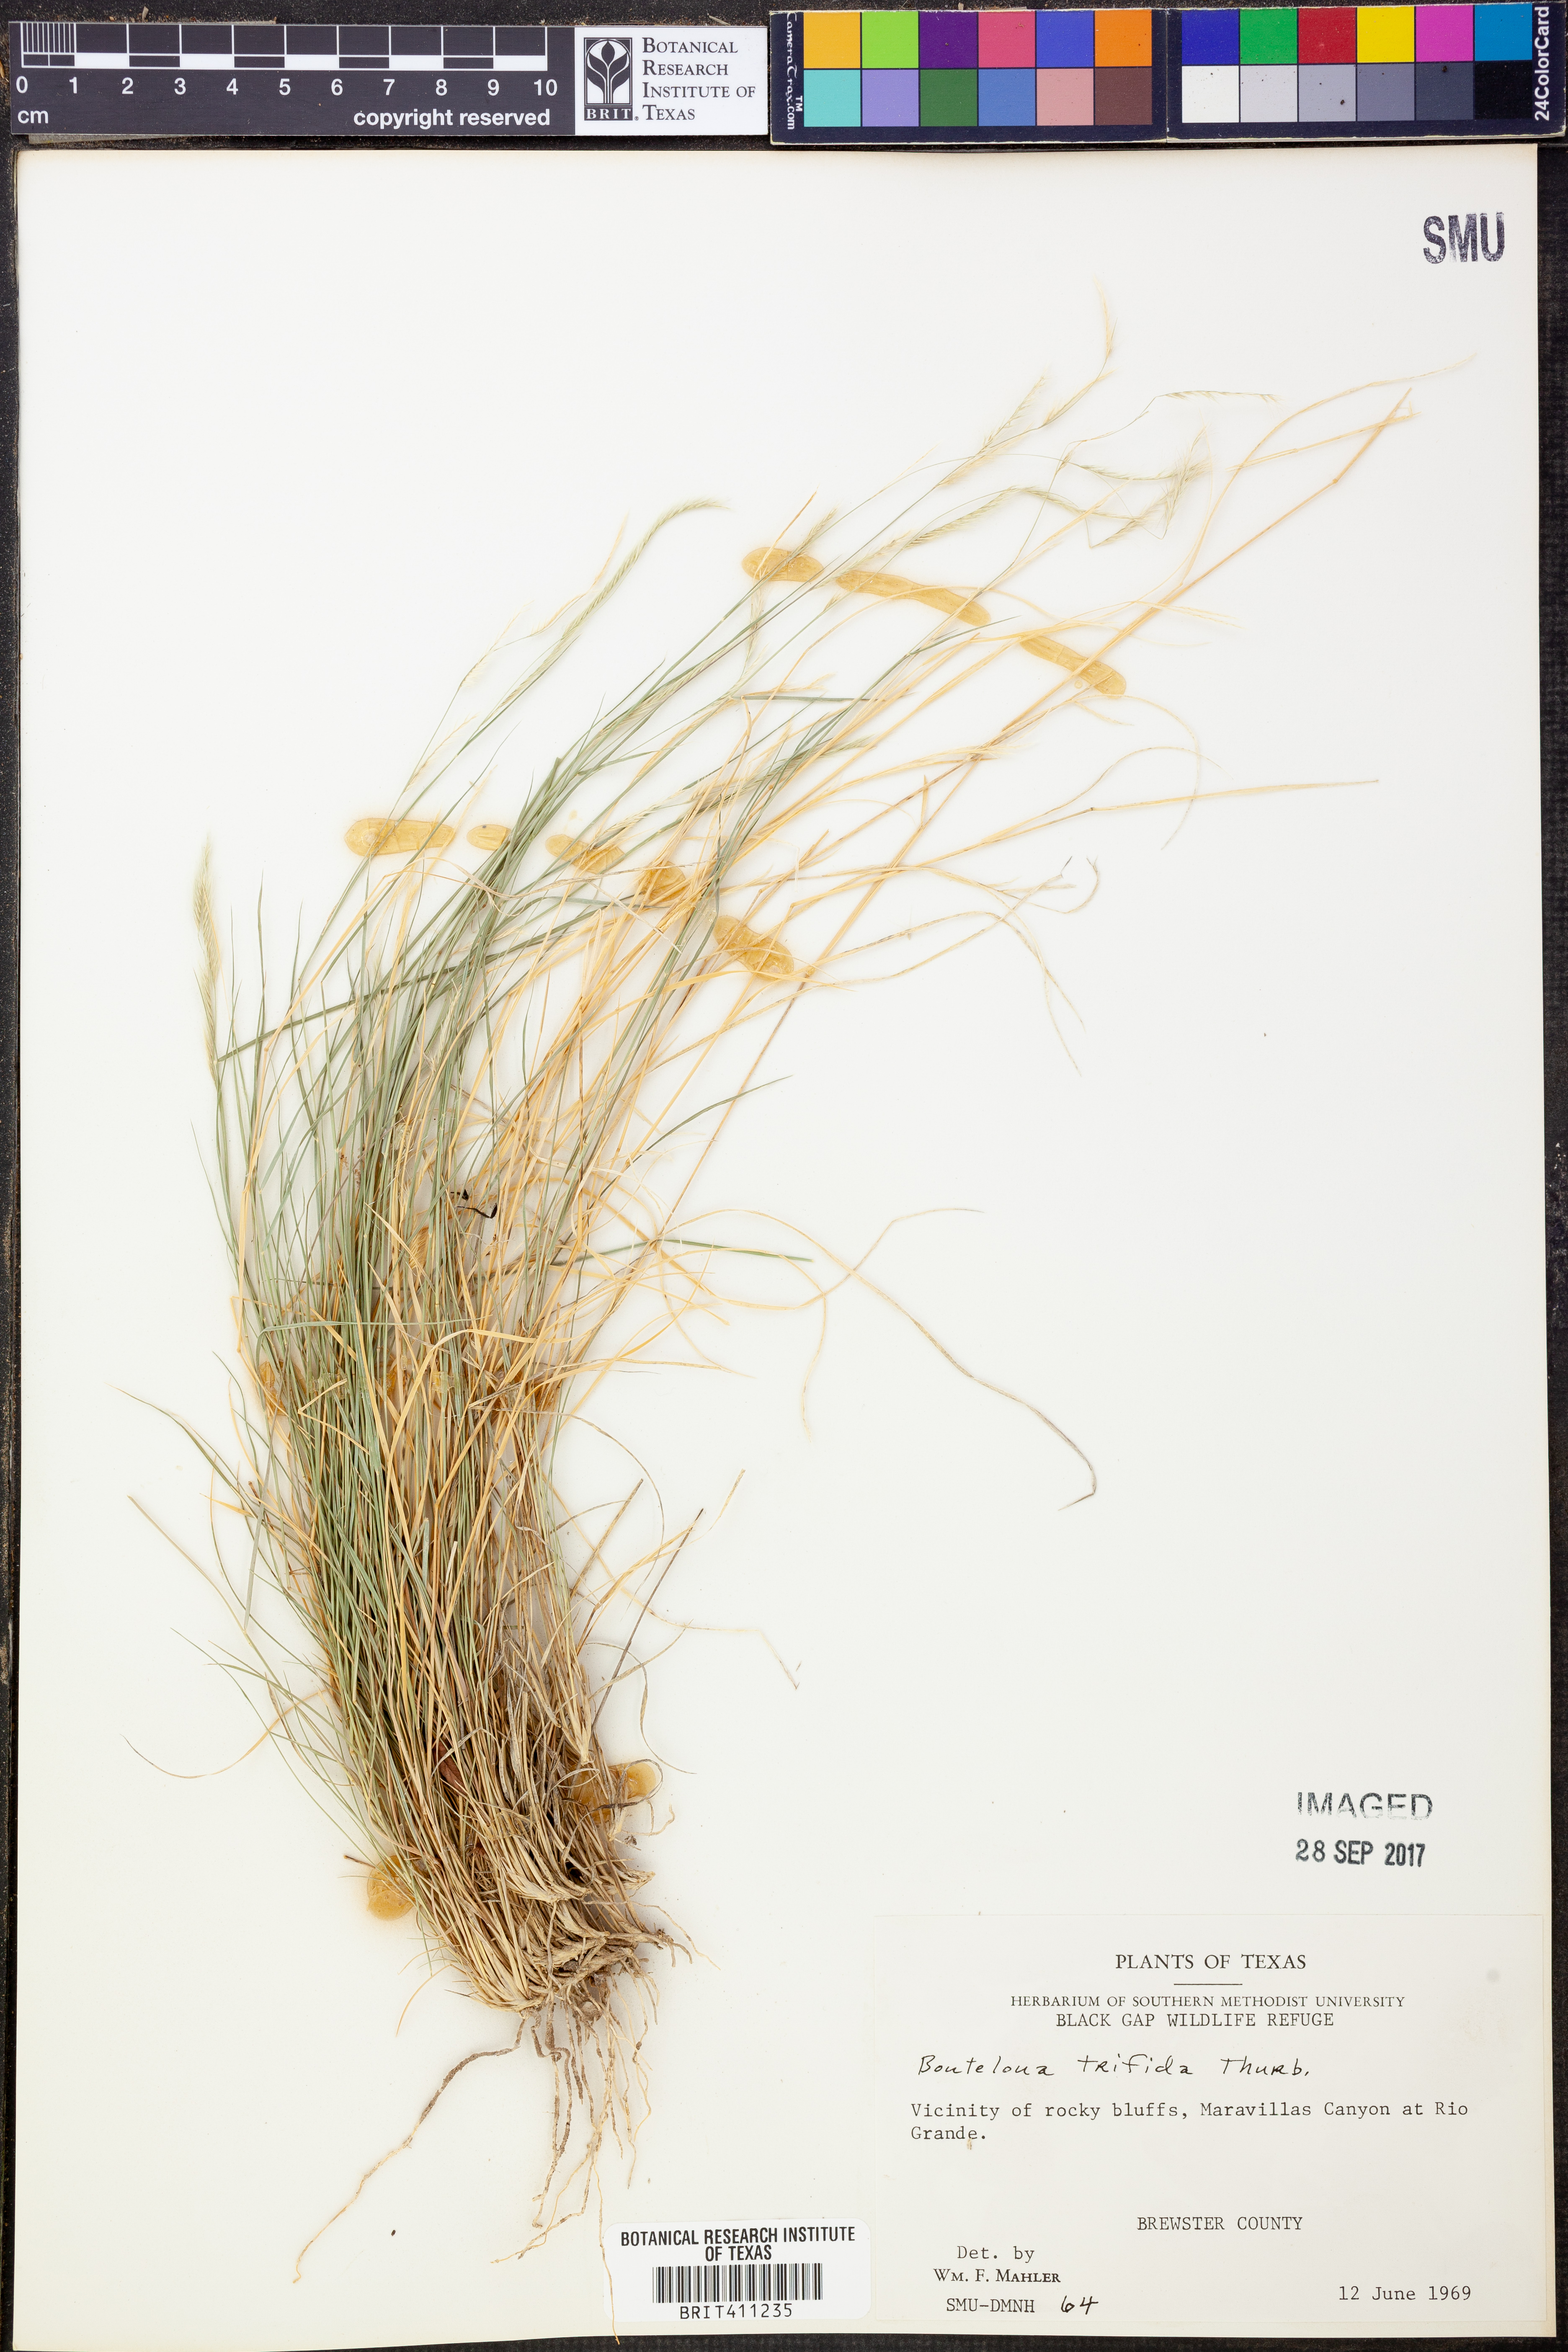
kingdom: Plantae
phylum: Tracheophyta
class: Liliopsida
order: Poales
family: Poaceae
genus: Bouteloua
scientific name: Bouteloua trifida
